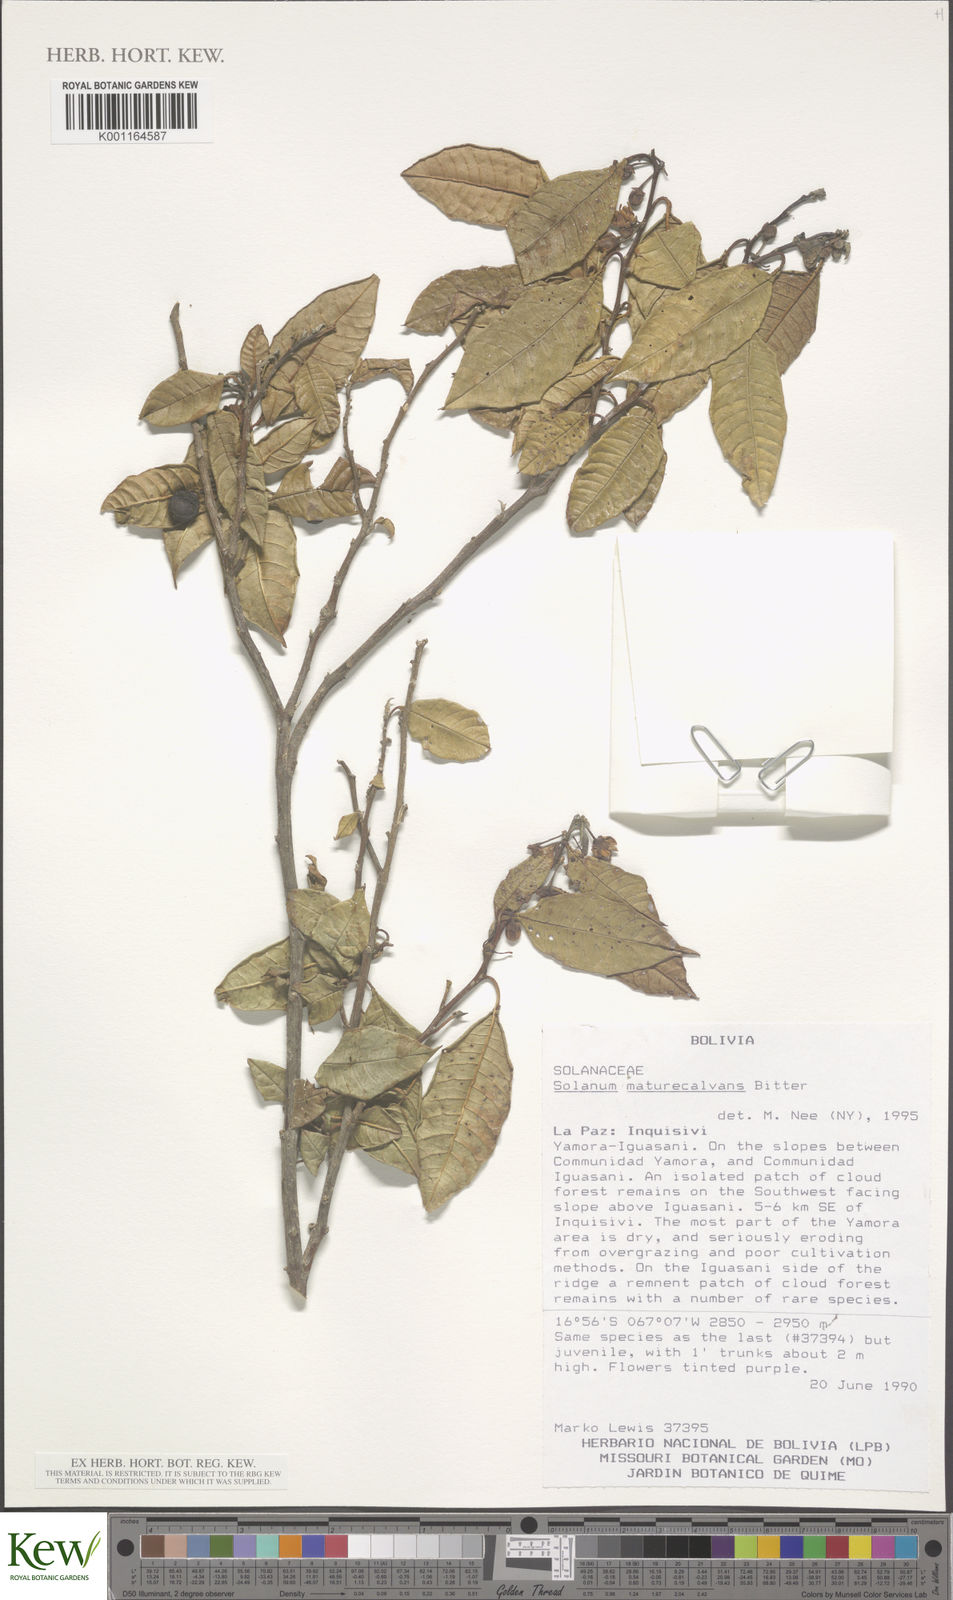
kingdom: Plantae
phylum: Tracheophyta
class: Magnoliopsida
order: Solanales
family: Solanaceae
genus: Solanum
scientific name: Solanum maturecalvans
